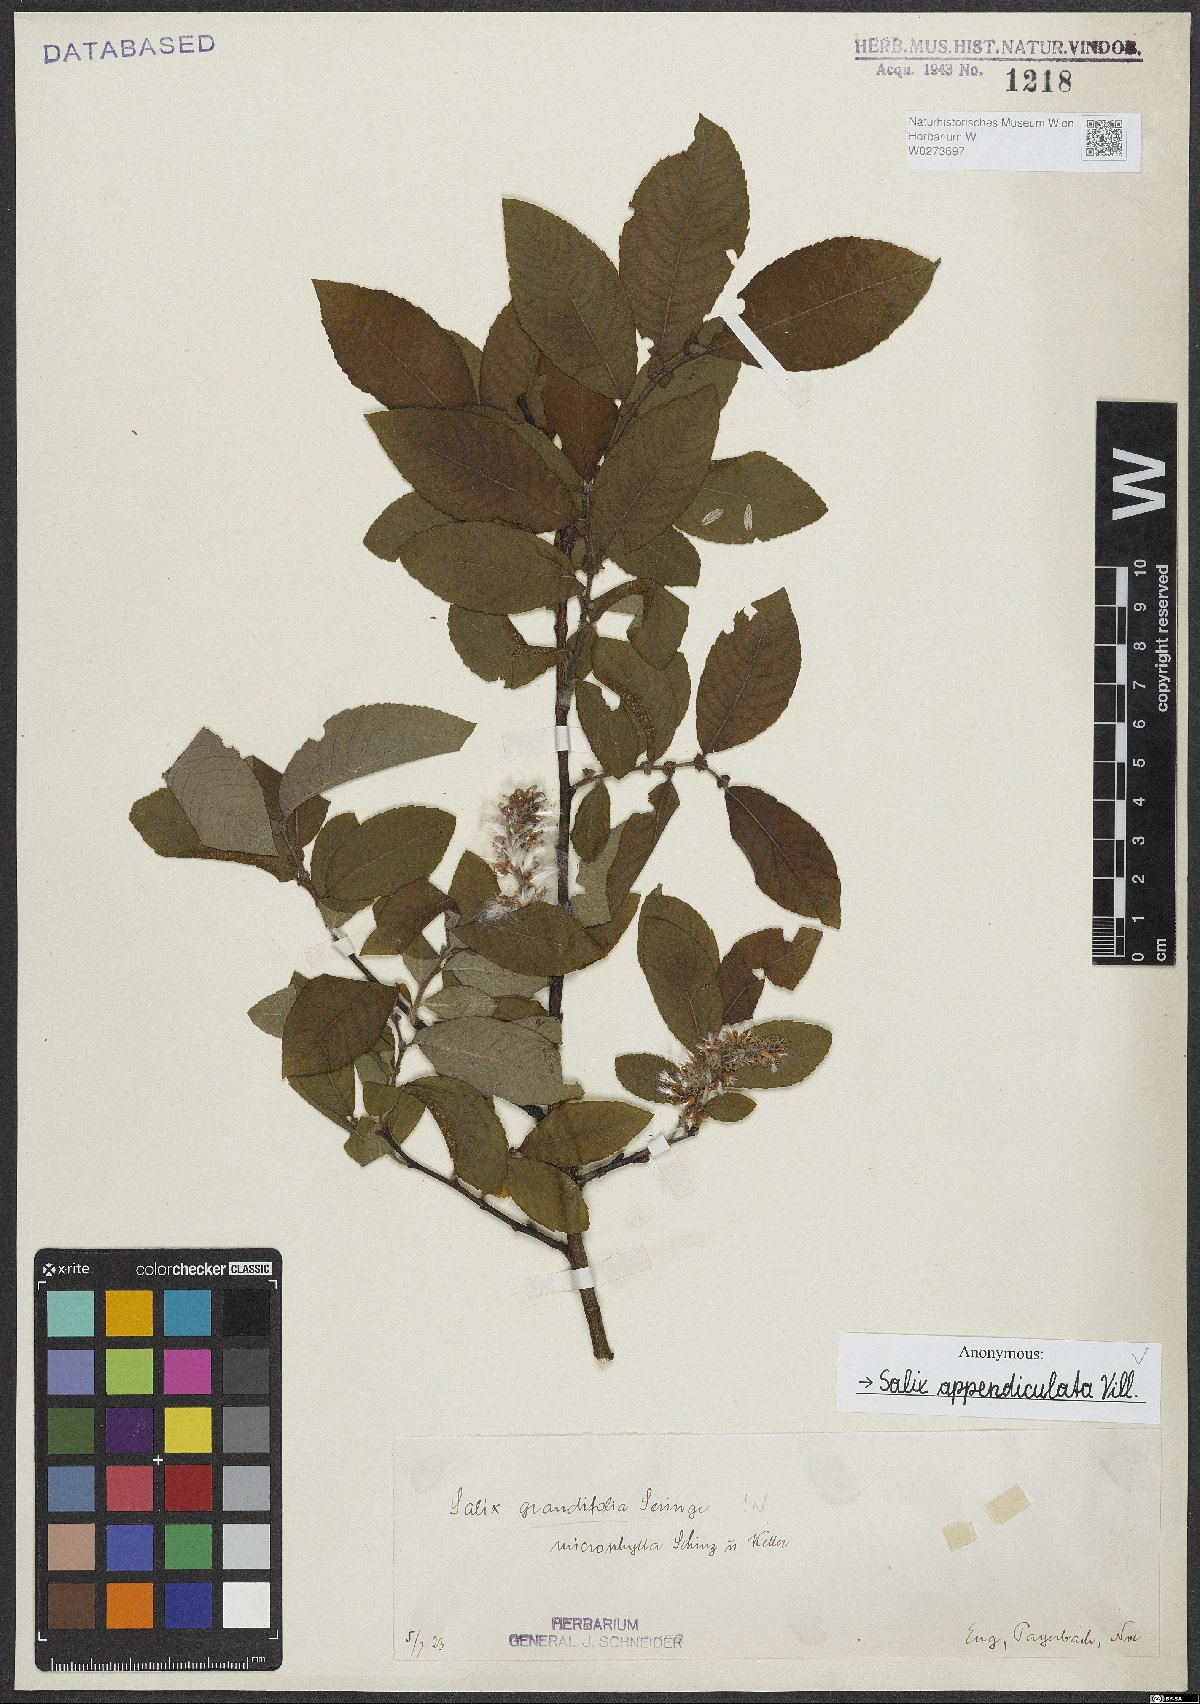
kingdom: Plantae
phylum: Tracheophyta
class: Magnoliopsida
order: Malpighiales
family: Salicaceae
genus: Salix
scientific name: Salix appendiculata
